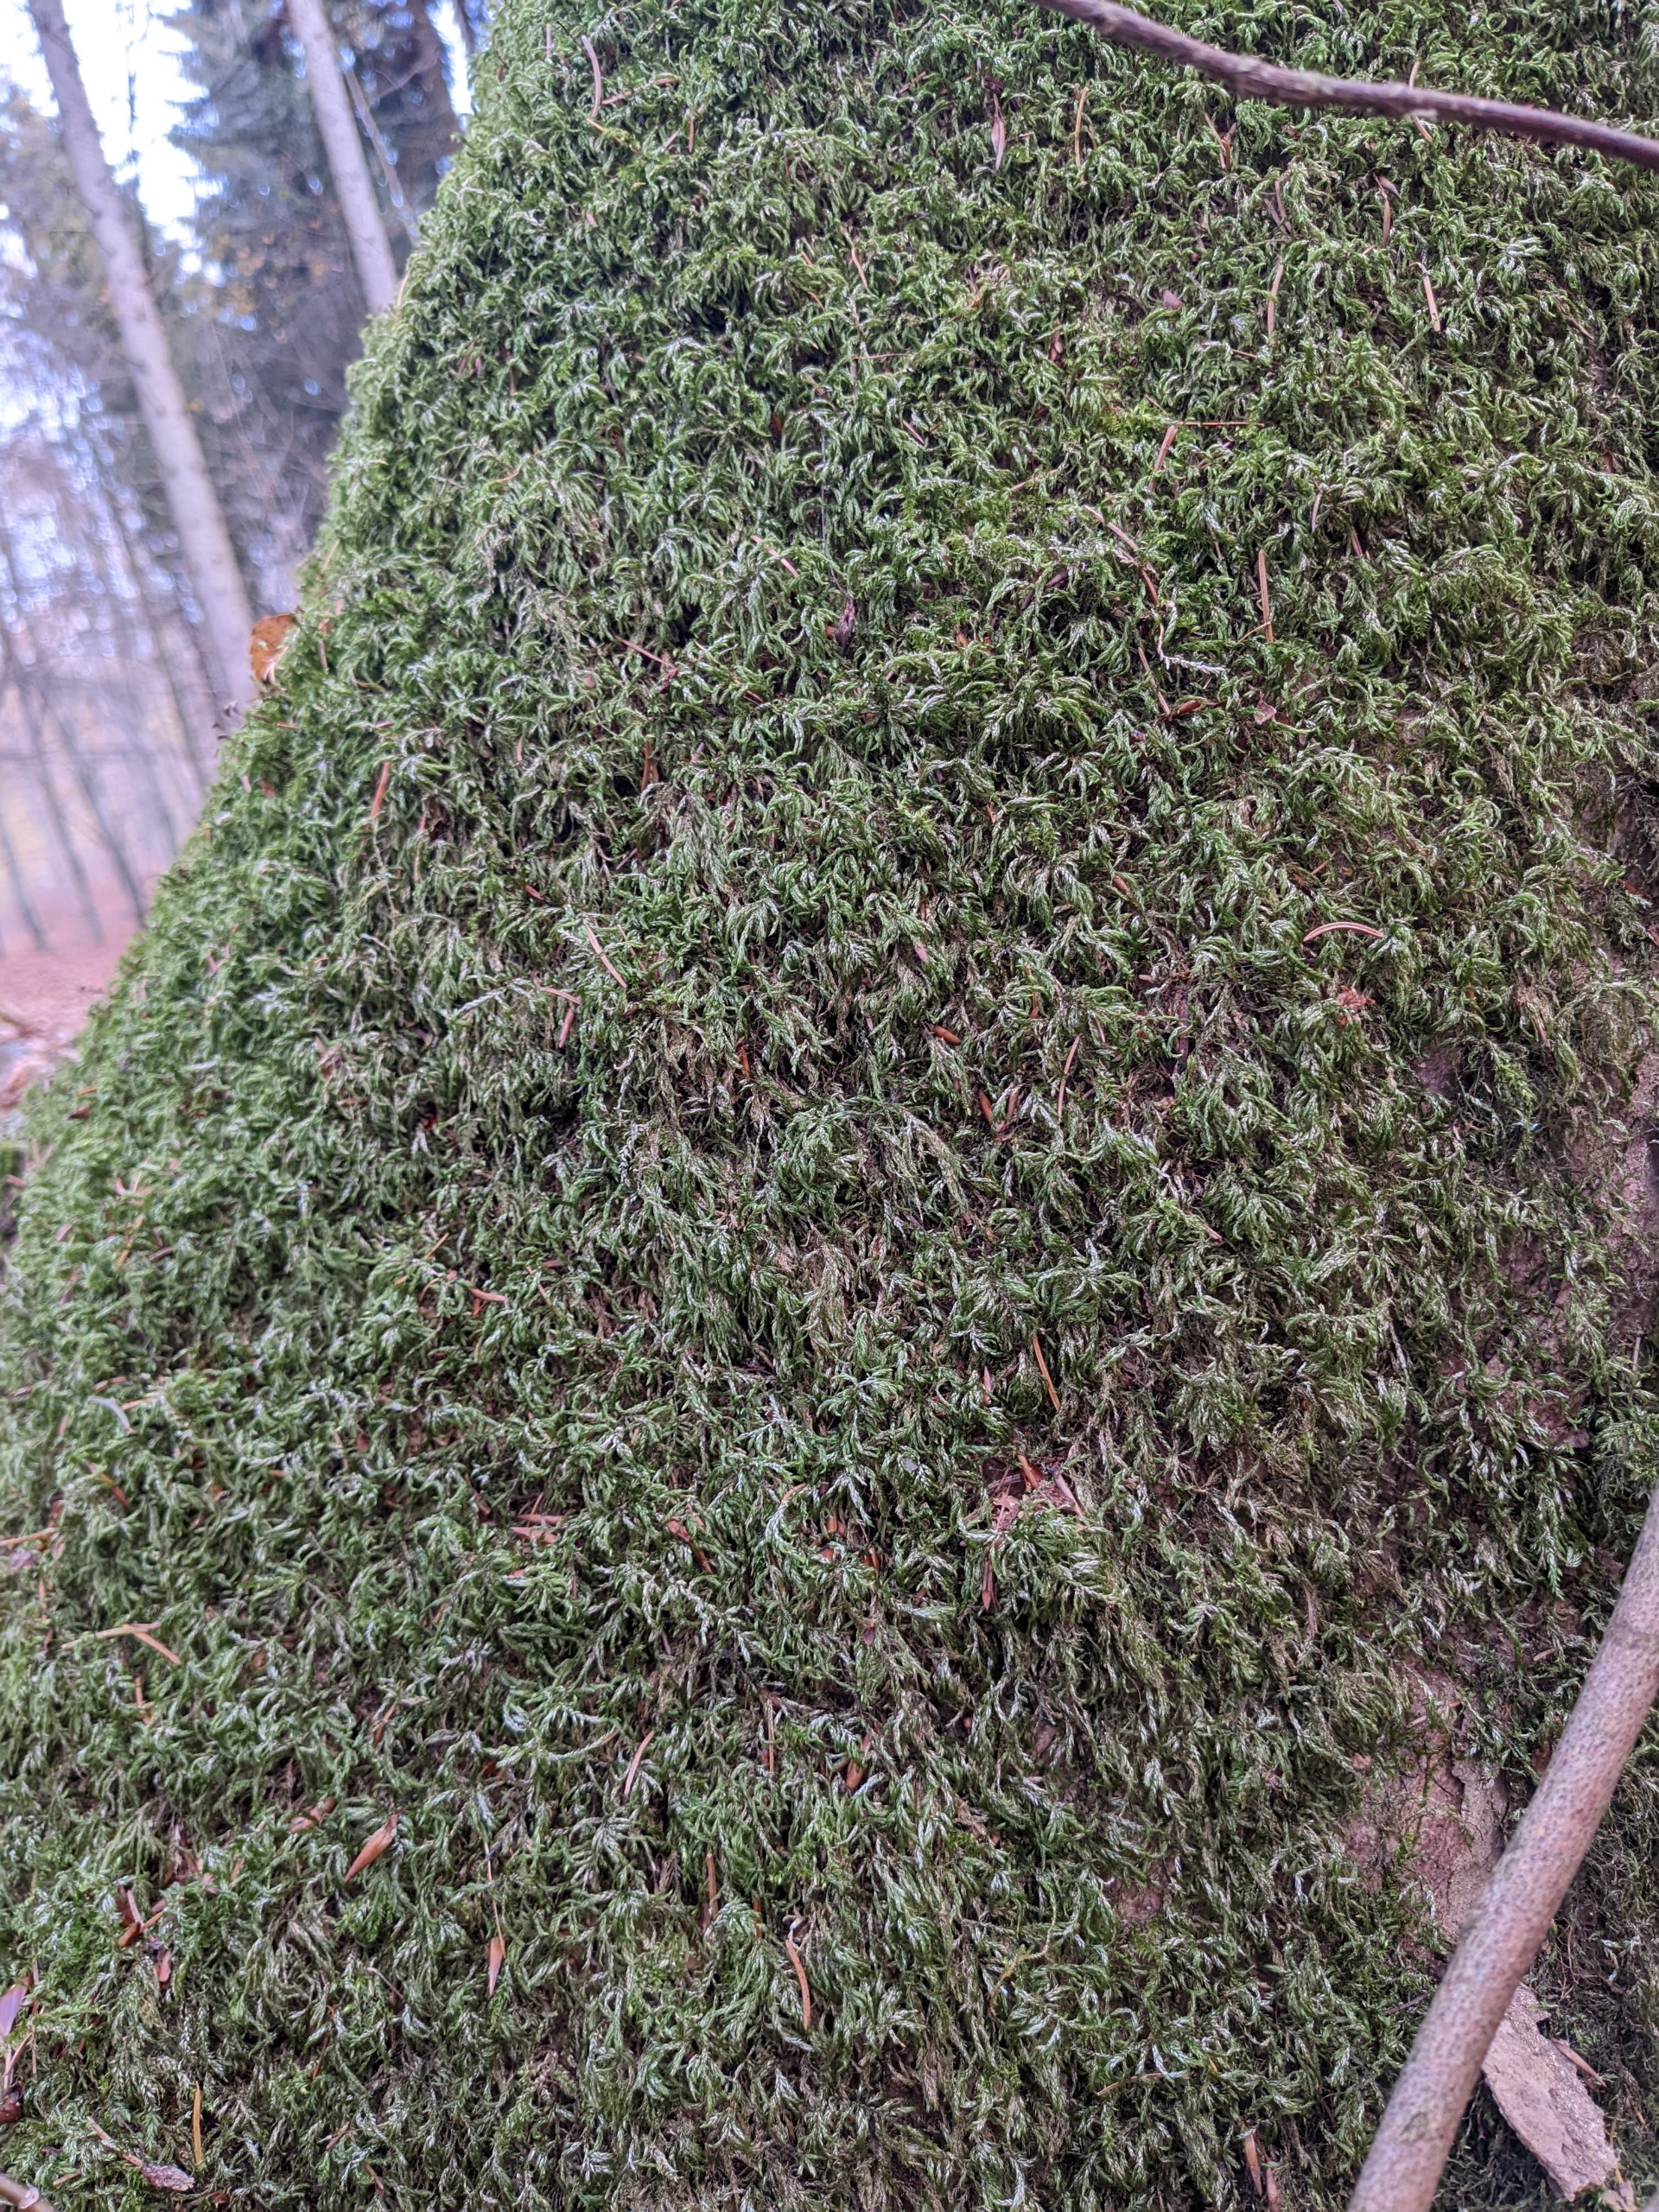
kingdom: Plantae
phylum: Bryophyta
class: Bryopsida
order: Hypnales
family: Lembophyllaceae
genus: Isothecium
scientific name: Isothecium alopecuroides
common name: Stor stammemos
